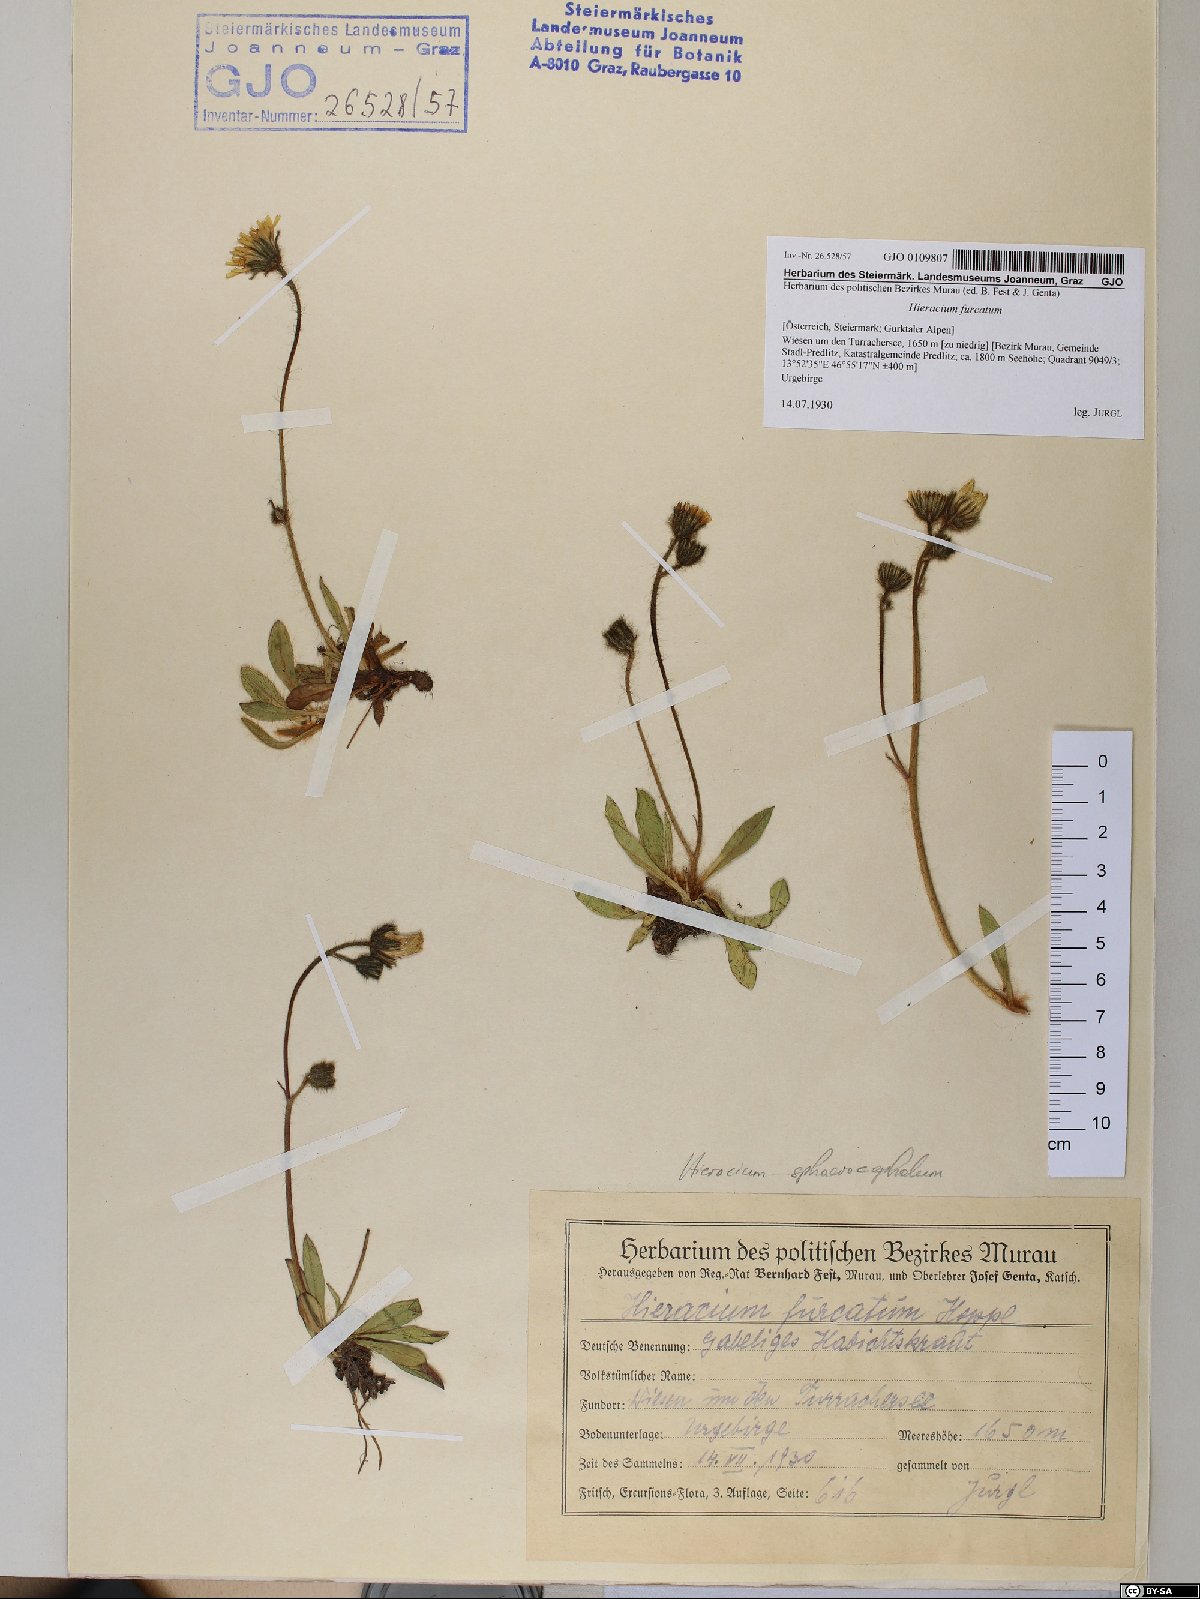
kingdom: Plantae
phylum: Tracheophyta
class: Magnoliopsida
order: Asterales
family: Asteraceae
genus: Pilosella
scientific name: Pilosella sphaerocephala
